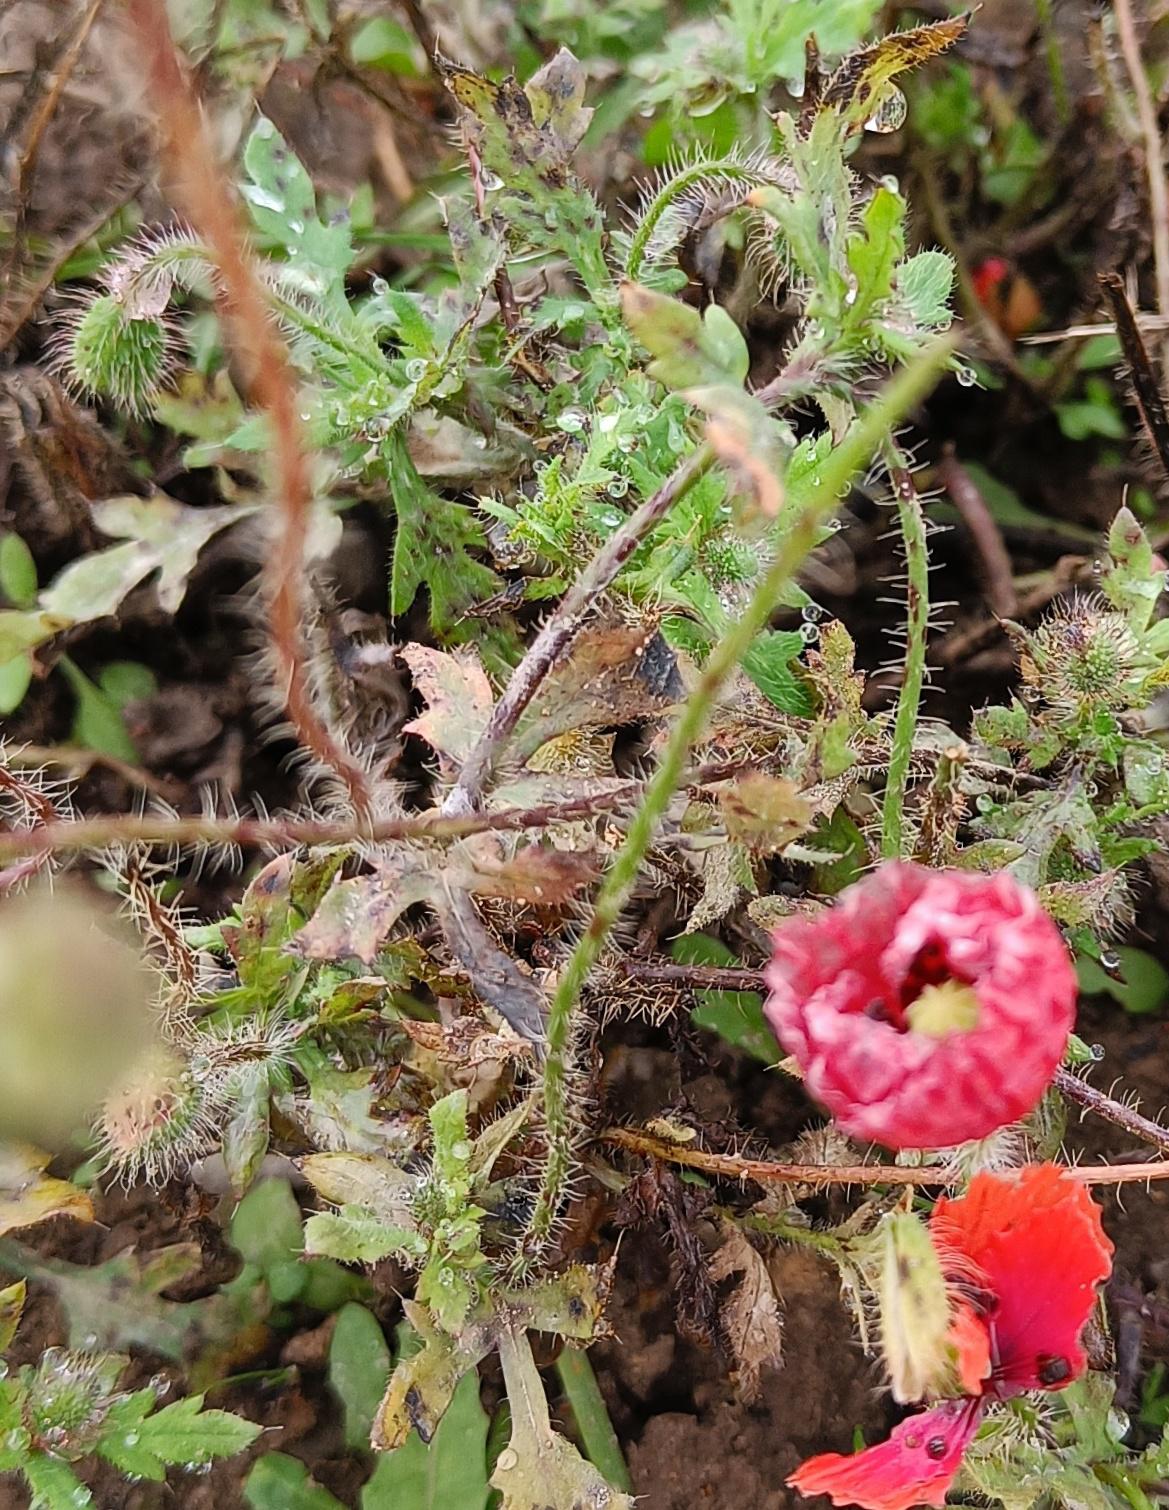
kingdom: Plantae
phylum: Tracheophyta
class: Magnoliopsida
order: Ranunculales
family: Papaveraceae
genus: Papaver
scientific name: Papaver rhoeas
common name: Korn-valmue
